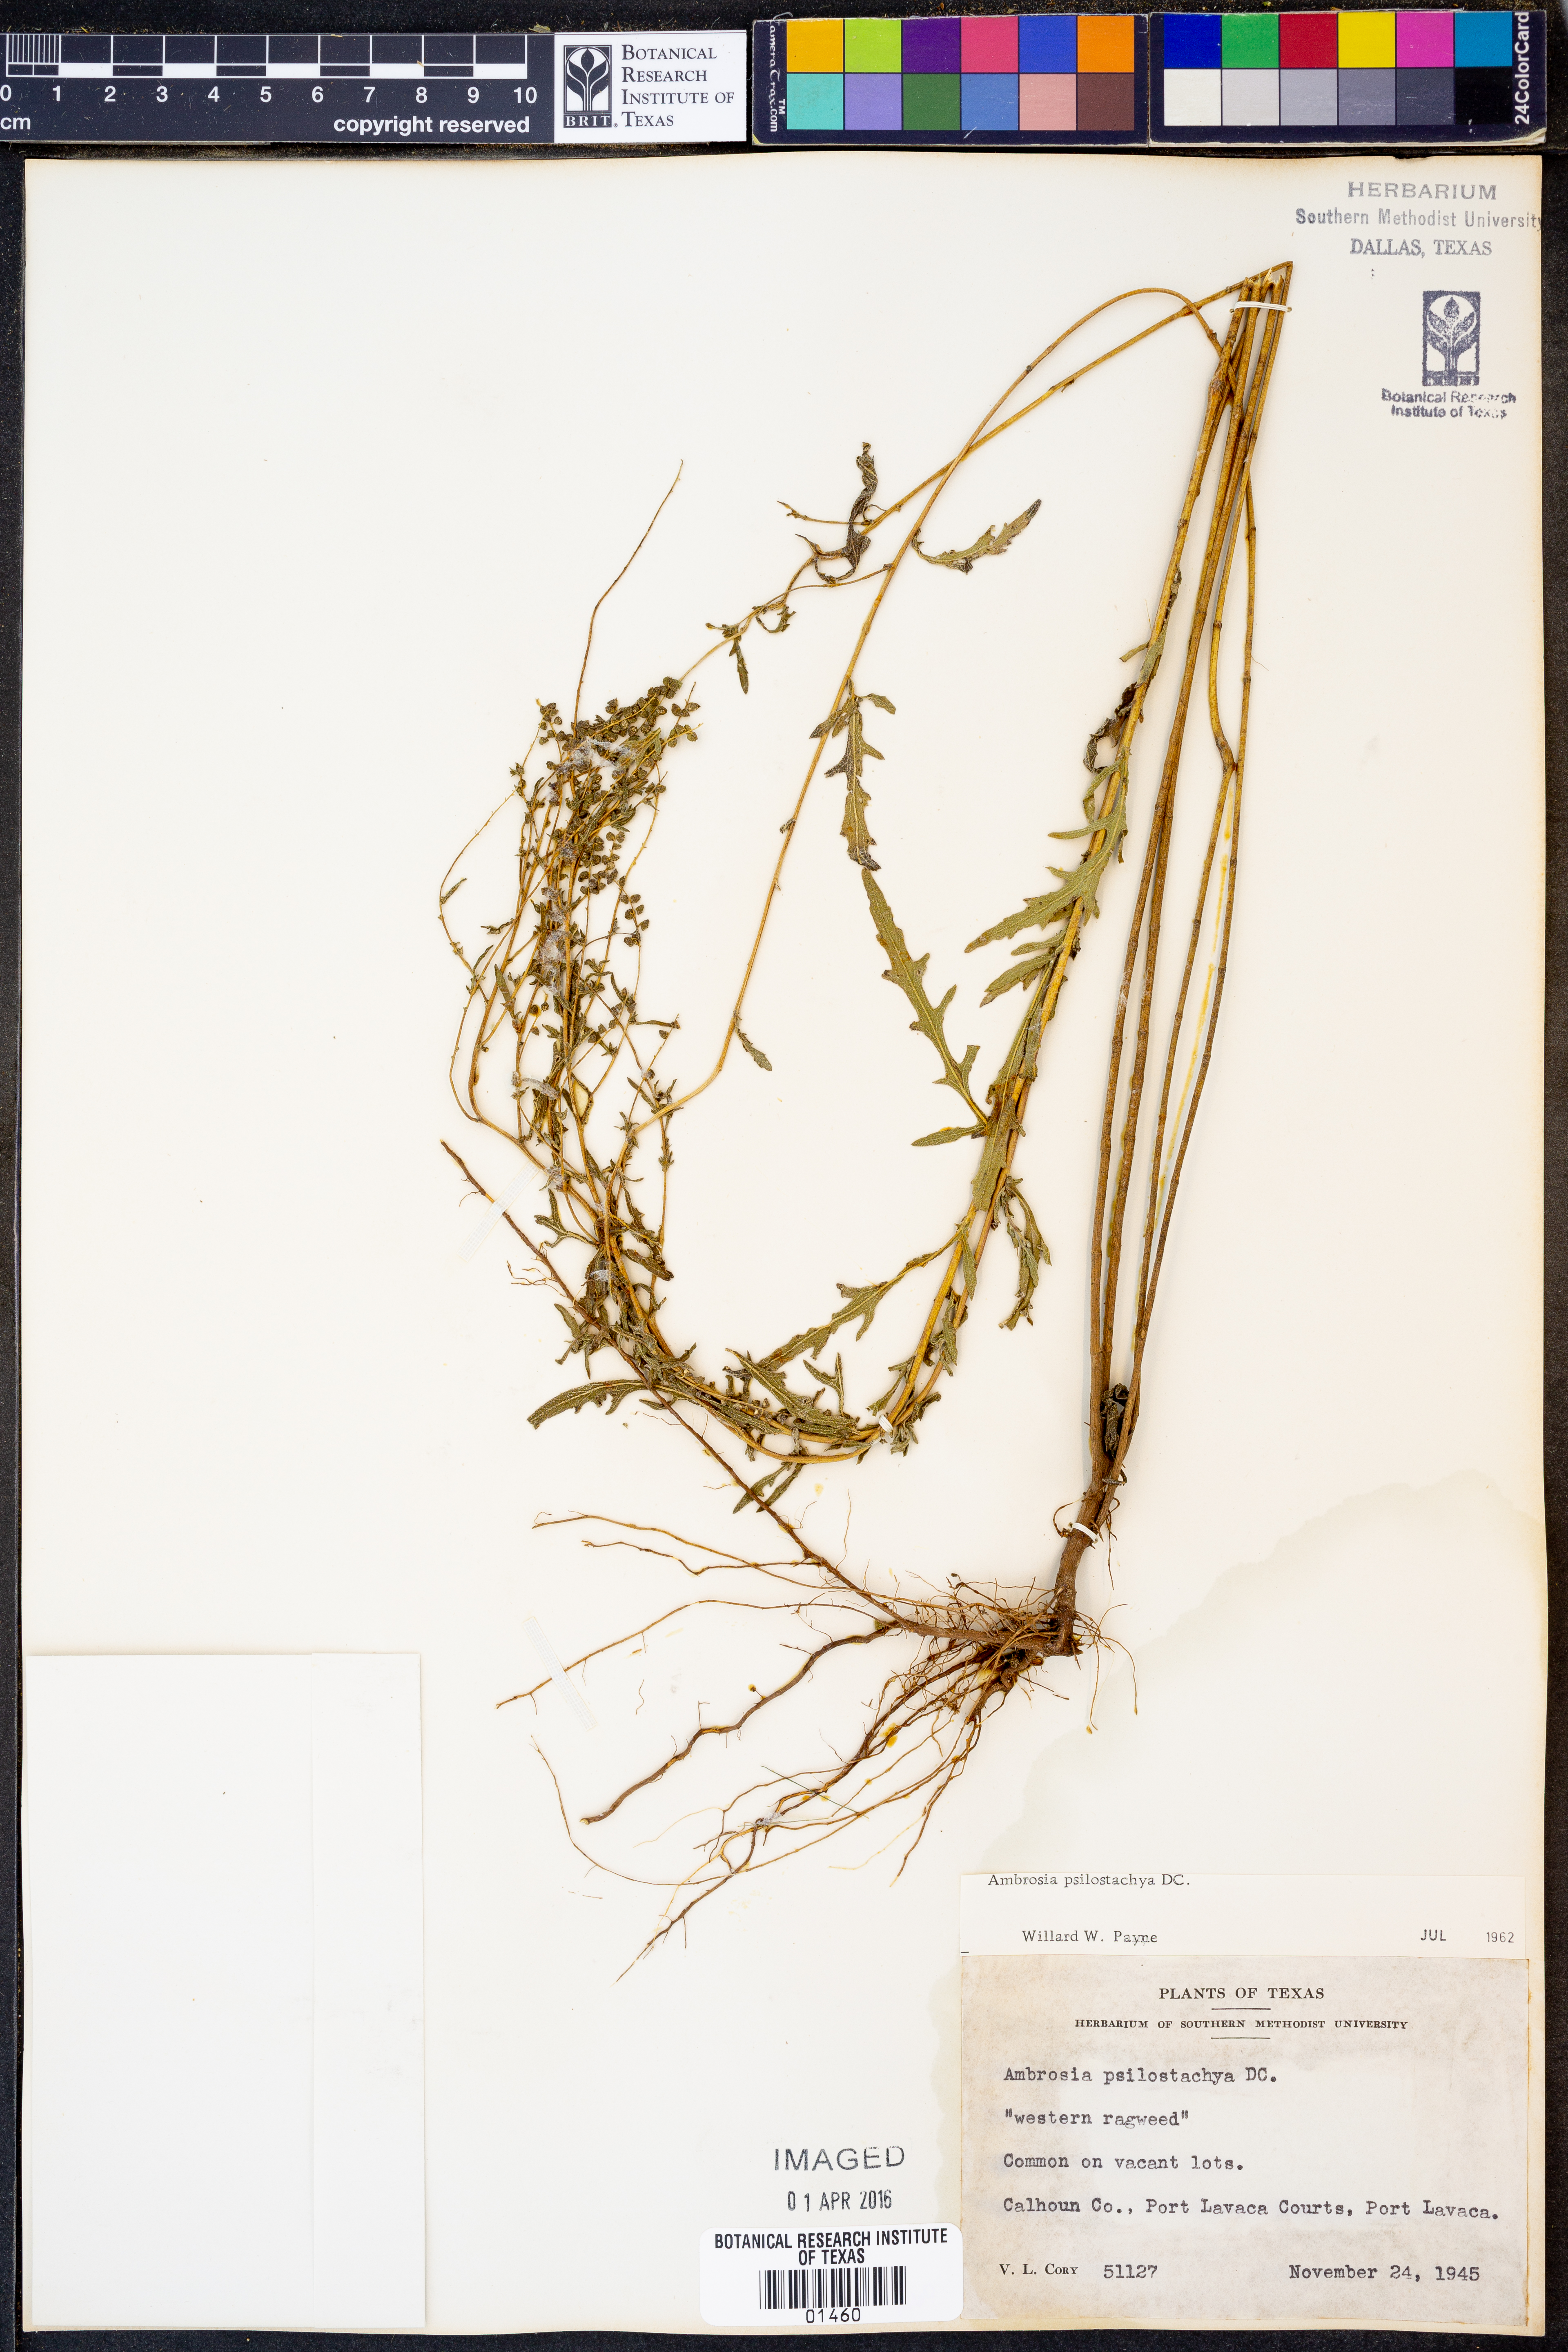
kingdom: Plantae
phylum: Tracheophyta
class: Magnoliopsida
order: Asterales
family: Asteraceae
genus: Ambrosia
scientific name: Ambrosia psilostachya
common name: Perennial ragweed
